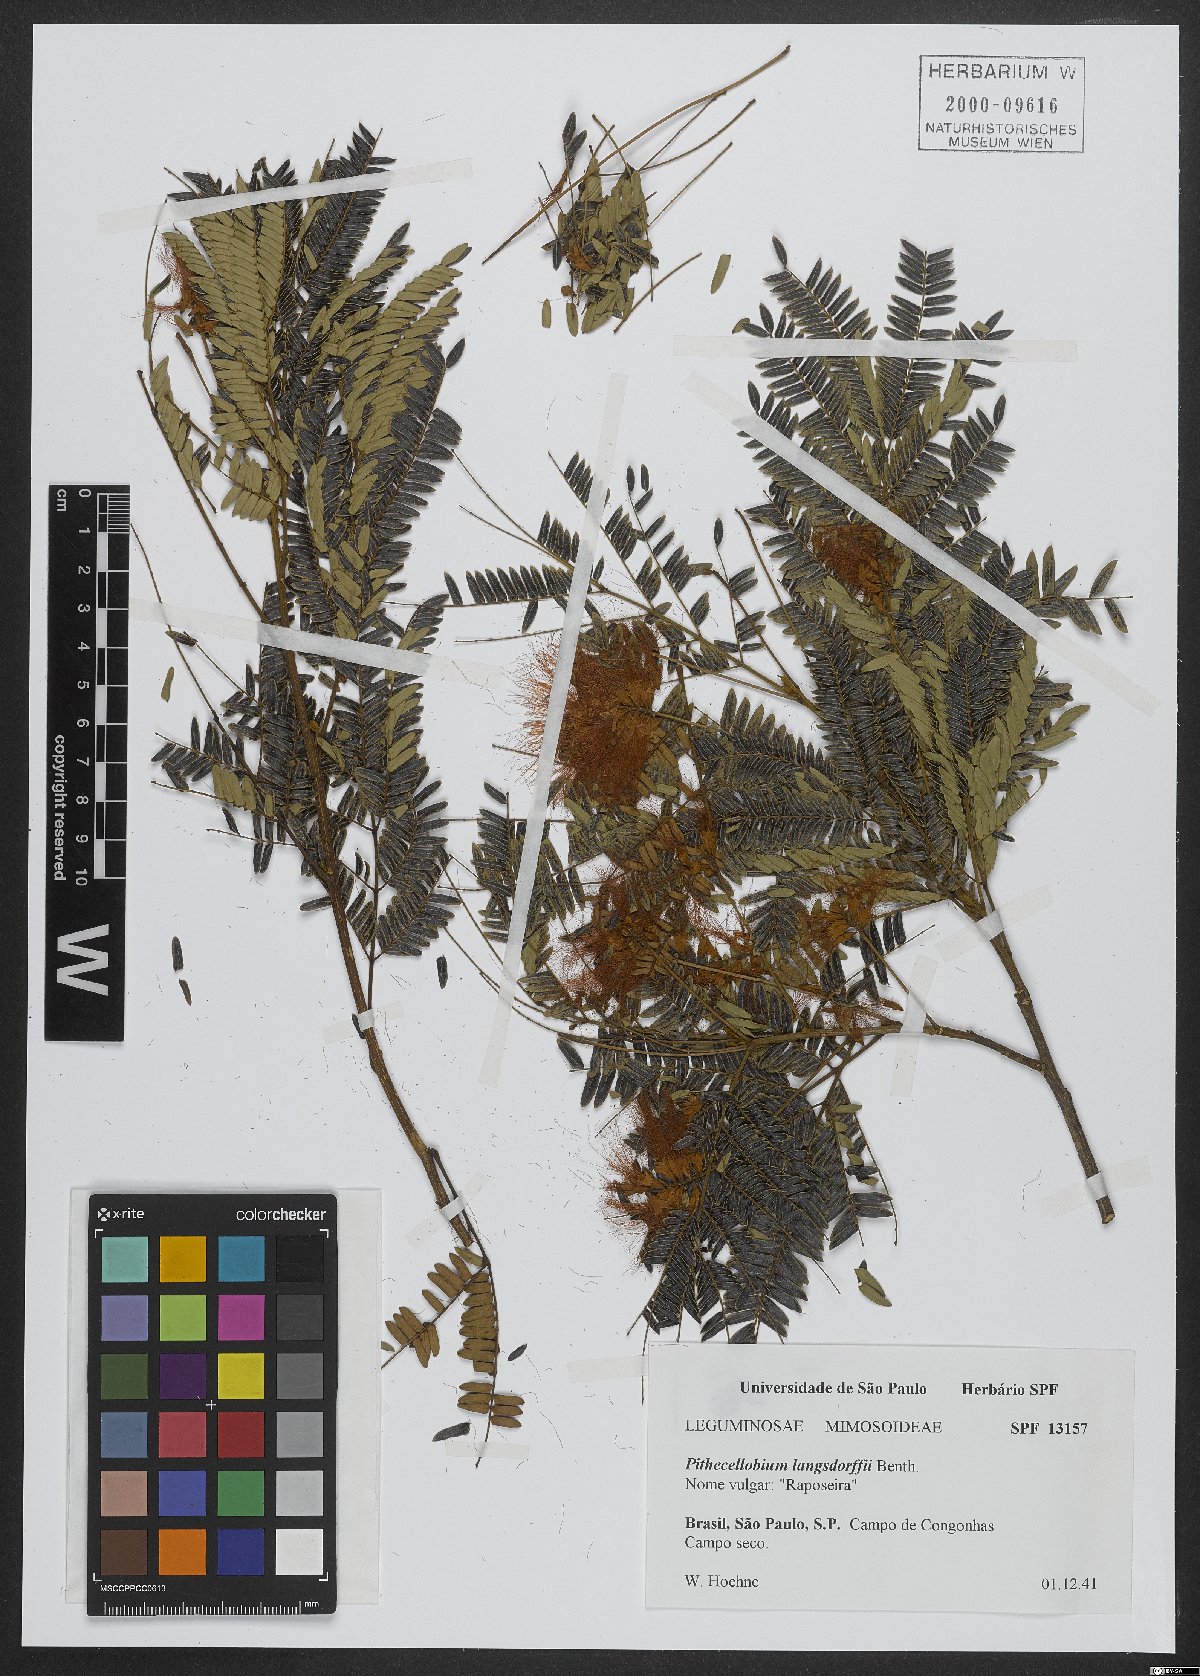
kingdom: Plantae
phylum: Tracheophyta
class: Magnoliopsida
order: Fabales
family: Fabaceae
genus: Jupunba
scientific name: Jupunba langsdorffii
